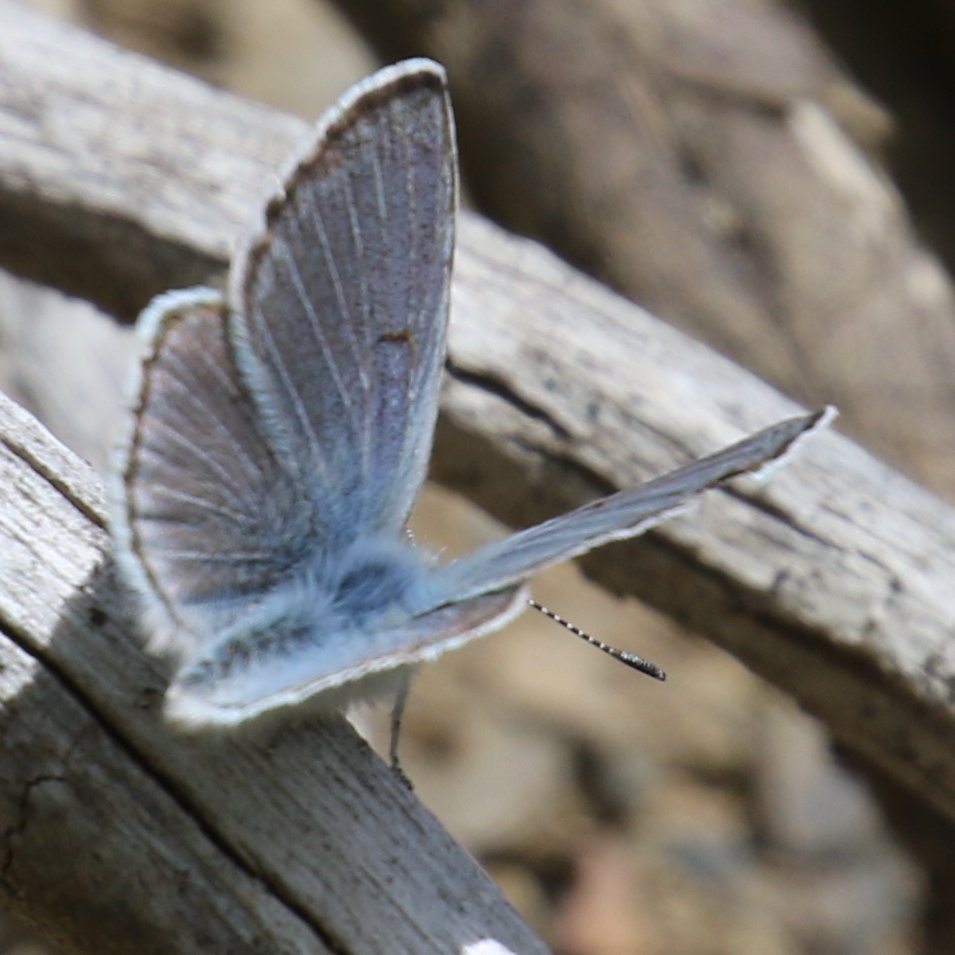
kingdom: Animalia
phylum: Arthropoda
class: Insecta
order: Lepidoptera
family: Lycaenidae
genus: Plebejus
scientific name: Plebejus saepiolus
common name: Greenish Blue
